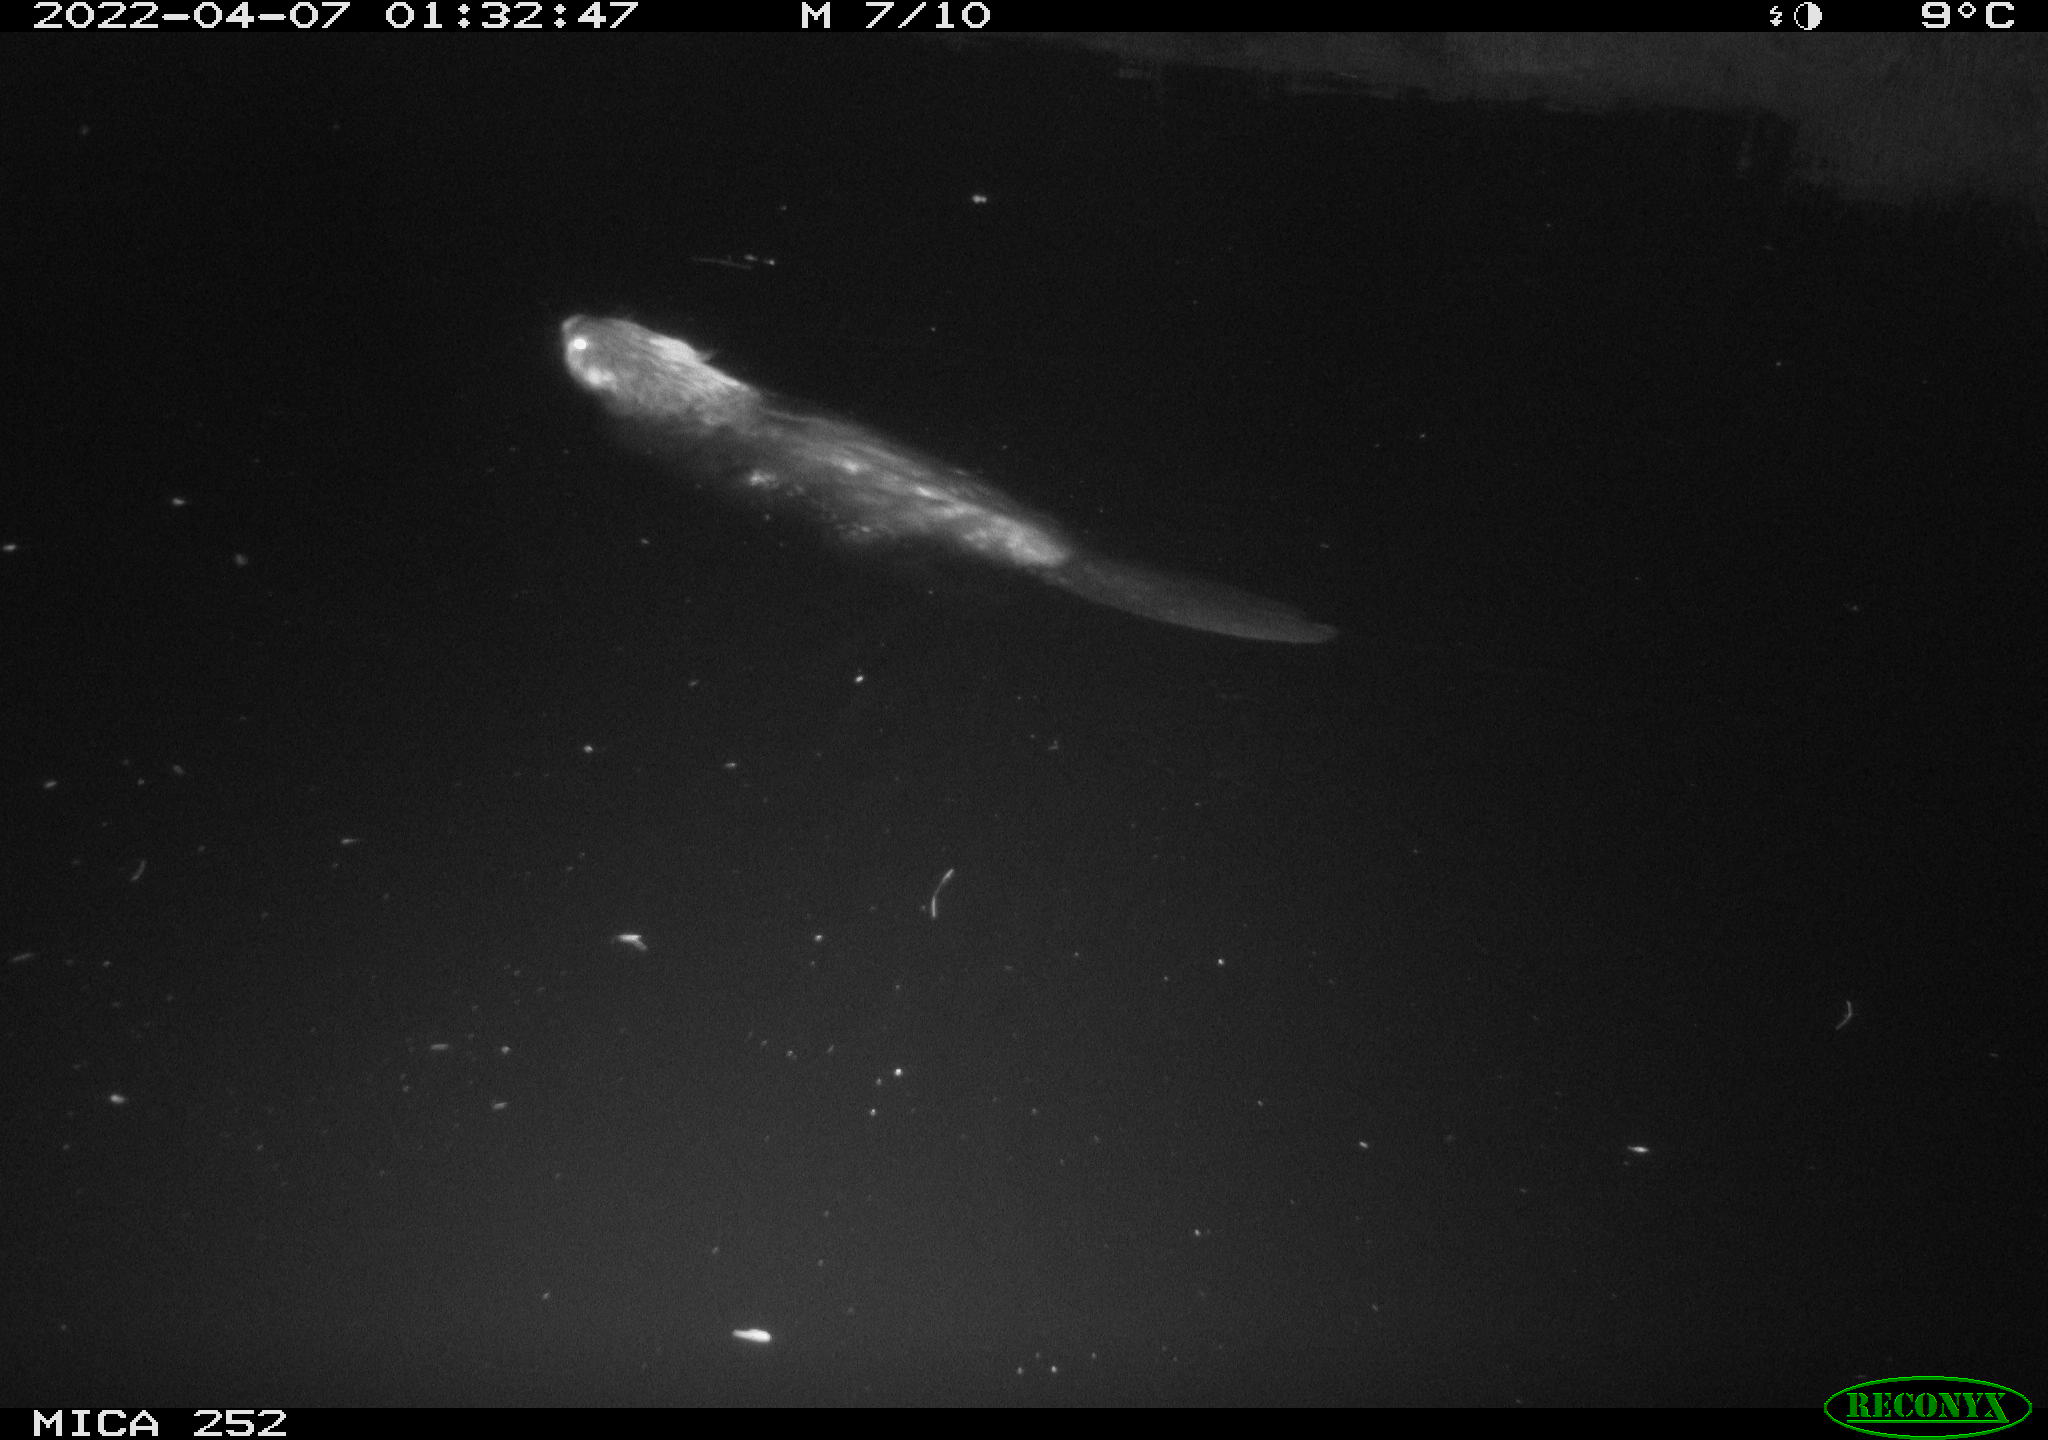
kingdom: Animalia
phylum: Chordata
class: Mammalia
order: Rodentia
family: Castoridae
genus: Castor
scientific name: Castor fiber
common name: Eurasian beaver
